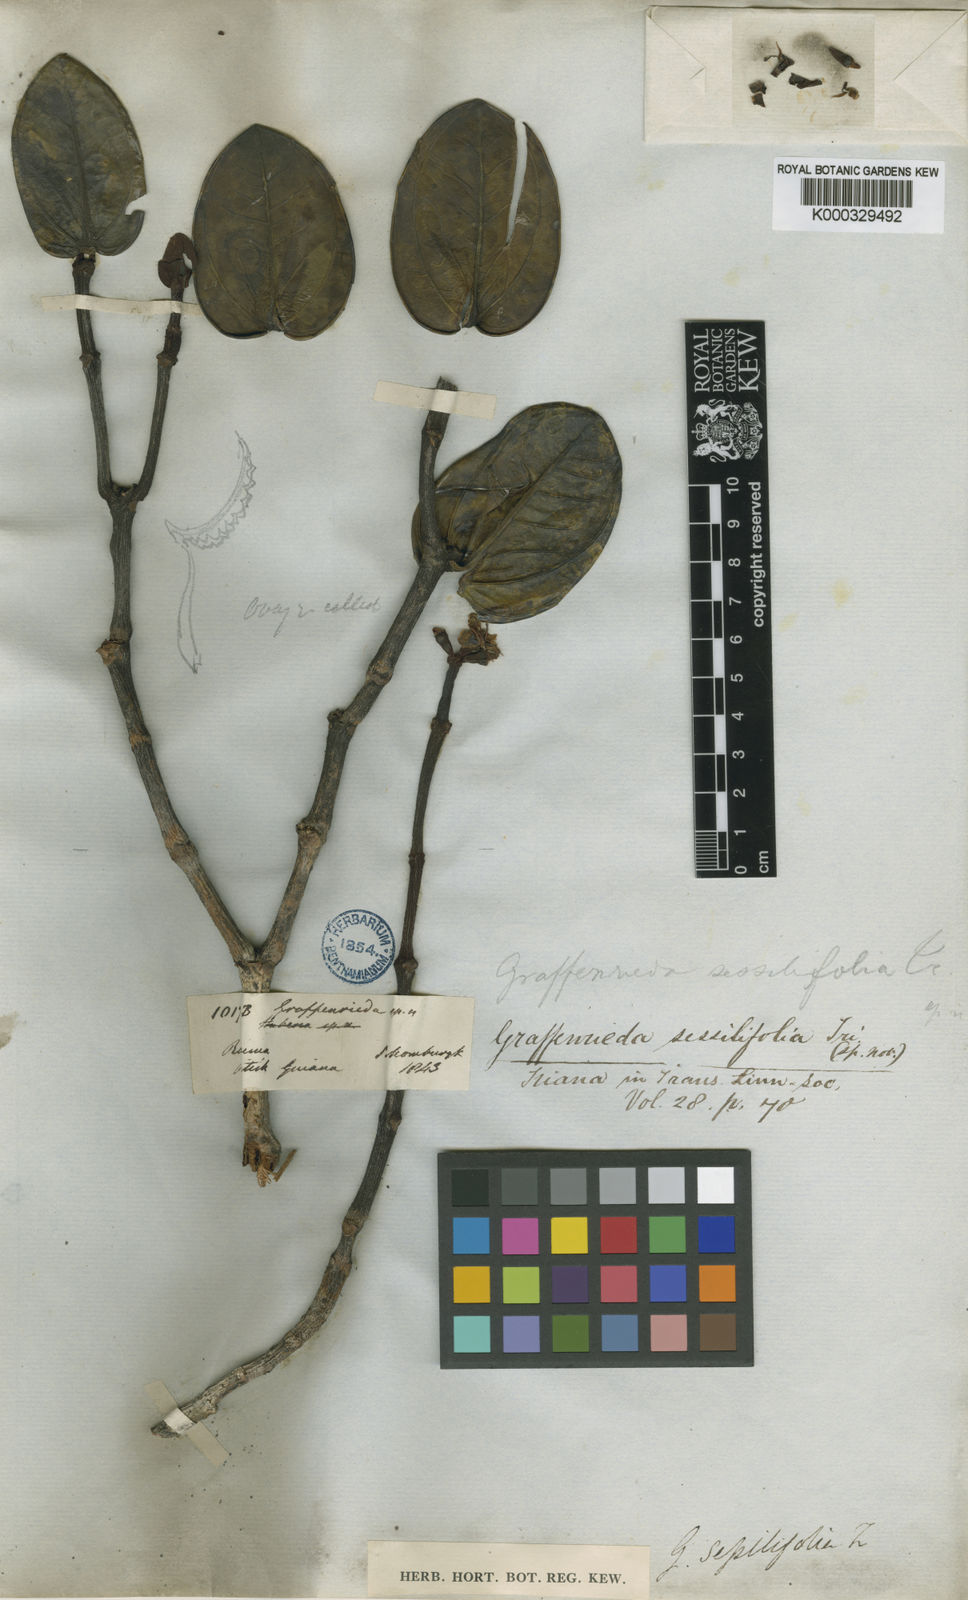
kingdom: Plantae
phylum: Tracheophyta
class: Magnoliopsida
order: Myrtales
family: Melastomataceae
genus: Graffenrieda
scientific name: Graffenrieda sessilifolia
